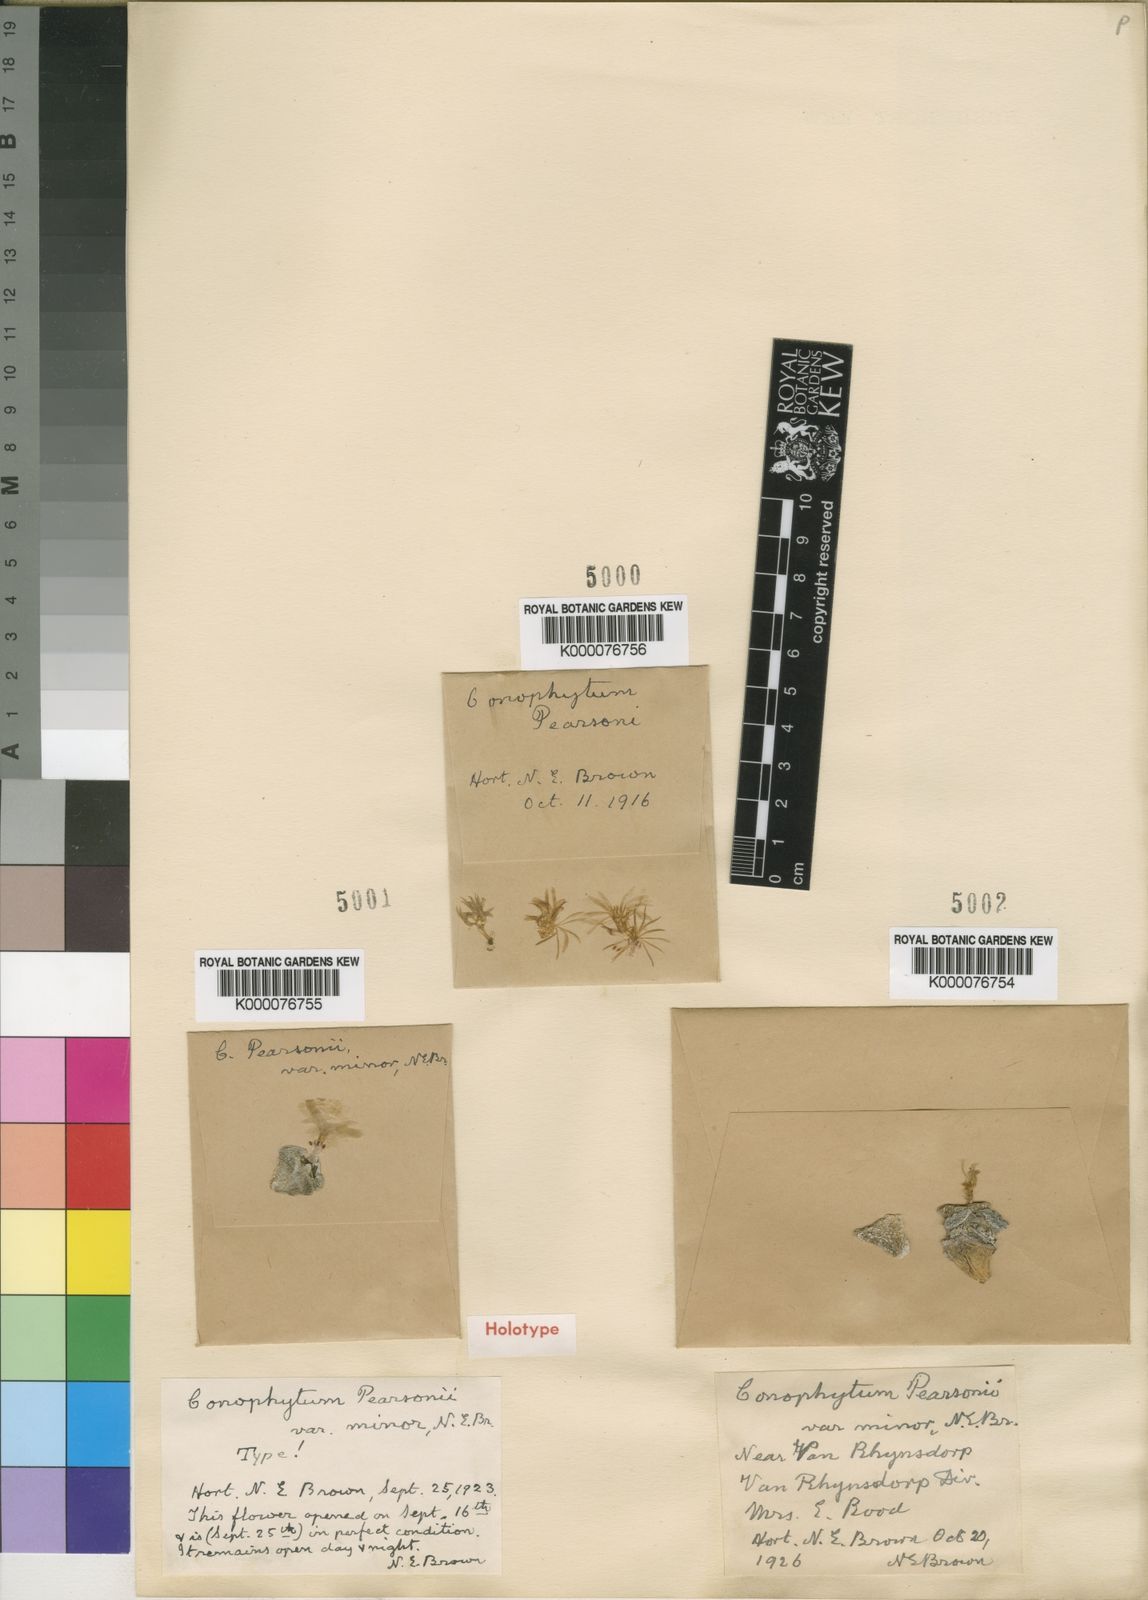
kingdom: Plantae
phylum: Tracheophyta
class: Magnoliopsida
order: Caryophyllales
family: Aizoaceae
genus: Conophytum
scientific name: Conophytum minutum
